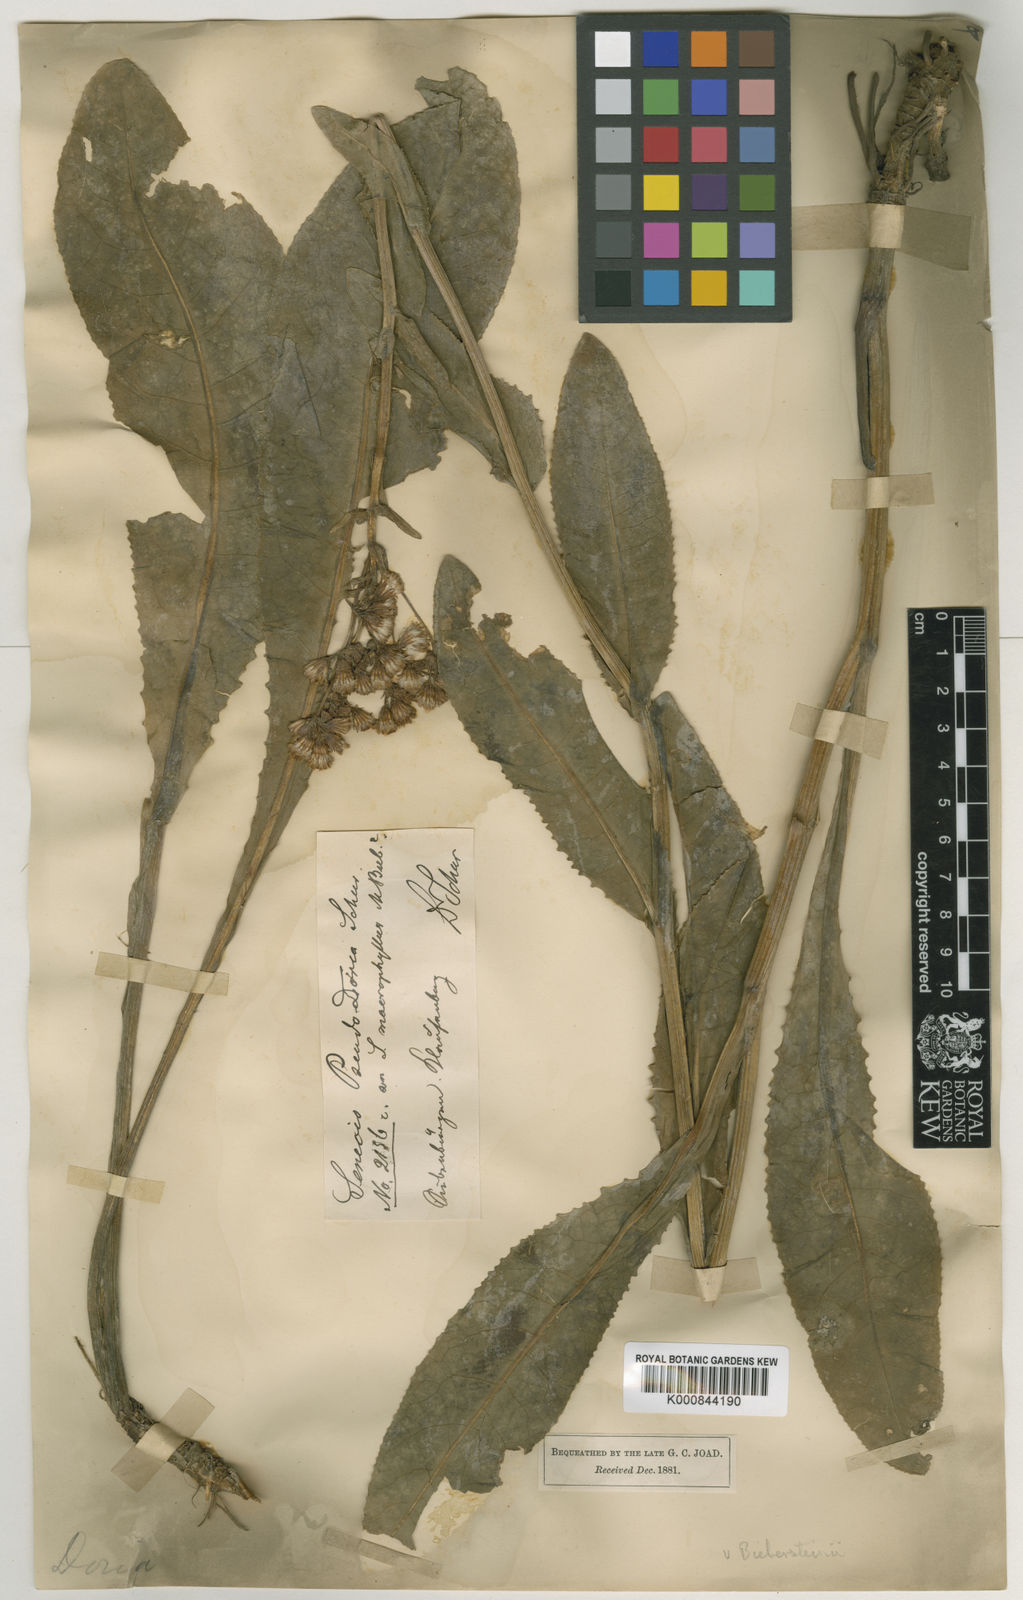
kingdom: Plantae
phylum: Tracheophyta
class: Magnoliopsida
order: Asterales
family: Asteraceae
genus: Senecio
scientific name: Senecio
